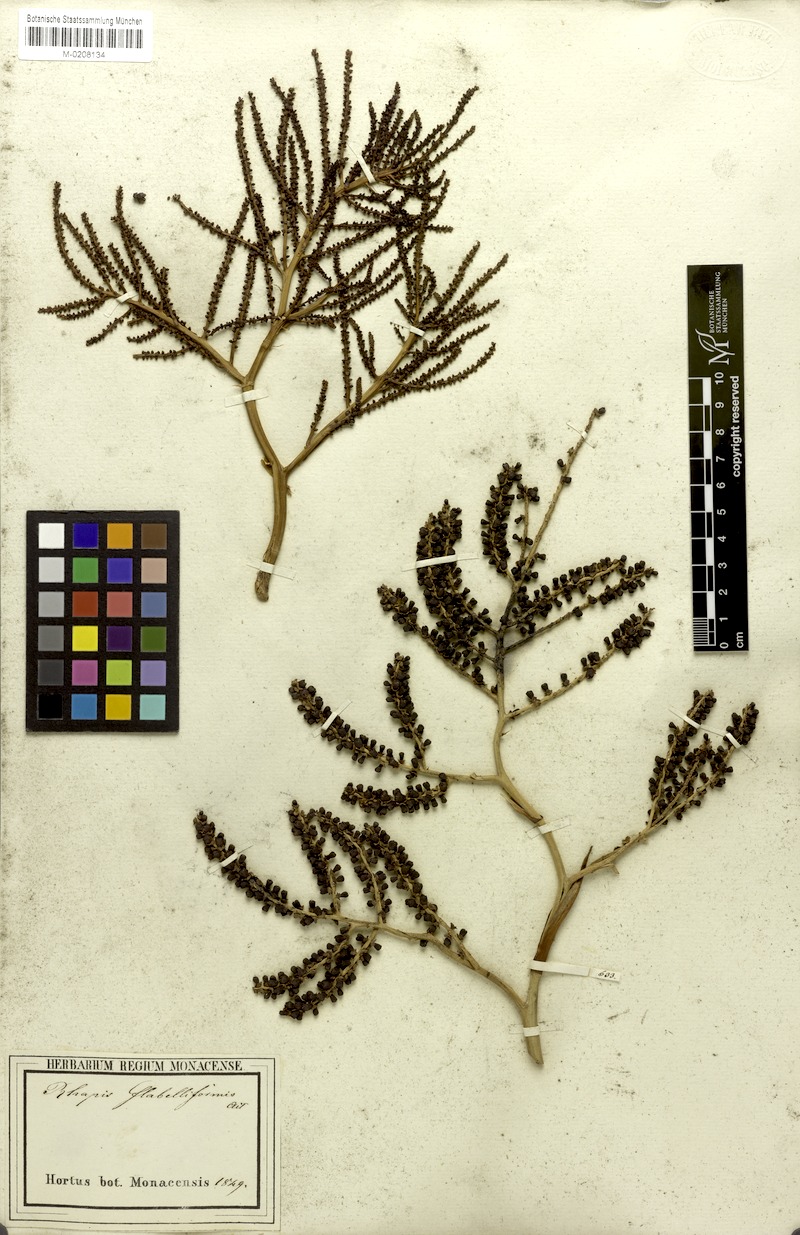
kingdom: Plantae
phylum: Tracheophyta
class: Liliopsida
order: Arecales
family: Arecaceae
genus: Rhapis
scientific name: Rhapis excelsa
